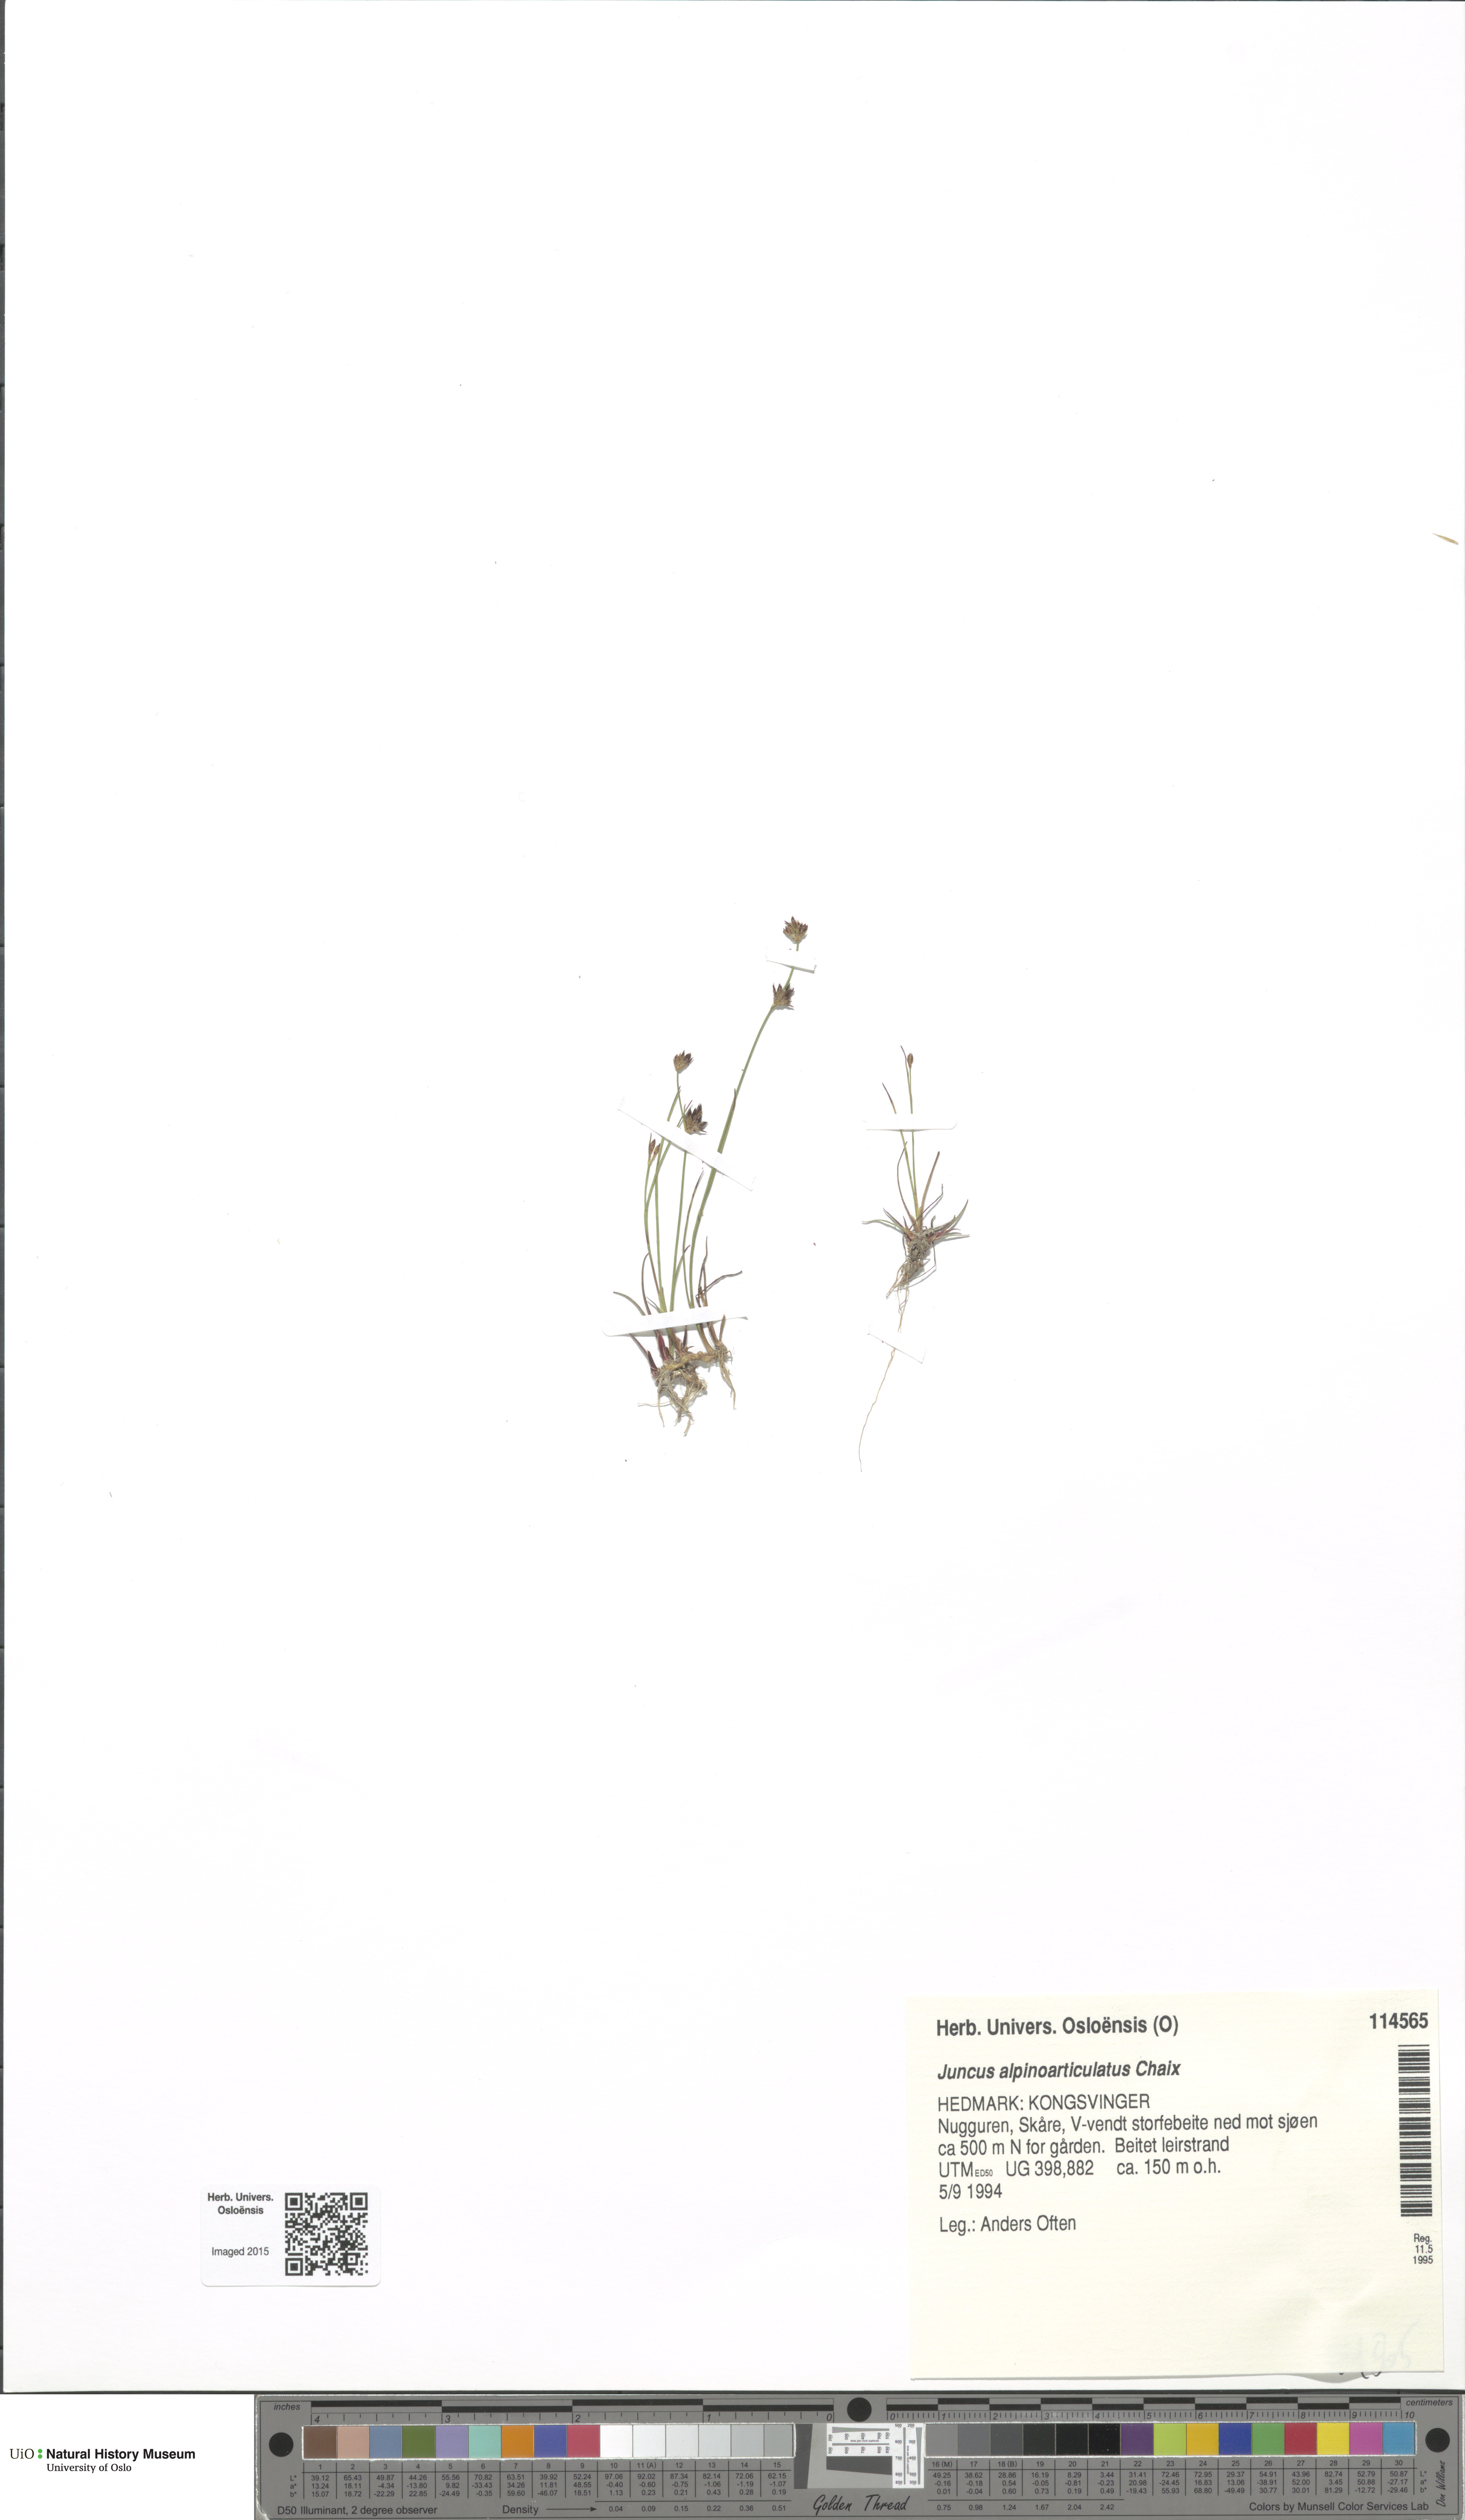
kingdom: Plantae
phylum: Tracheophyta
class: Liliopsida
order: Poales
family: Juncaceae
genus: Juncus
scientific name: Juncus alpinoarticulatus
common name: Alpine rush
